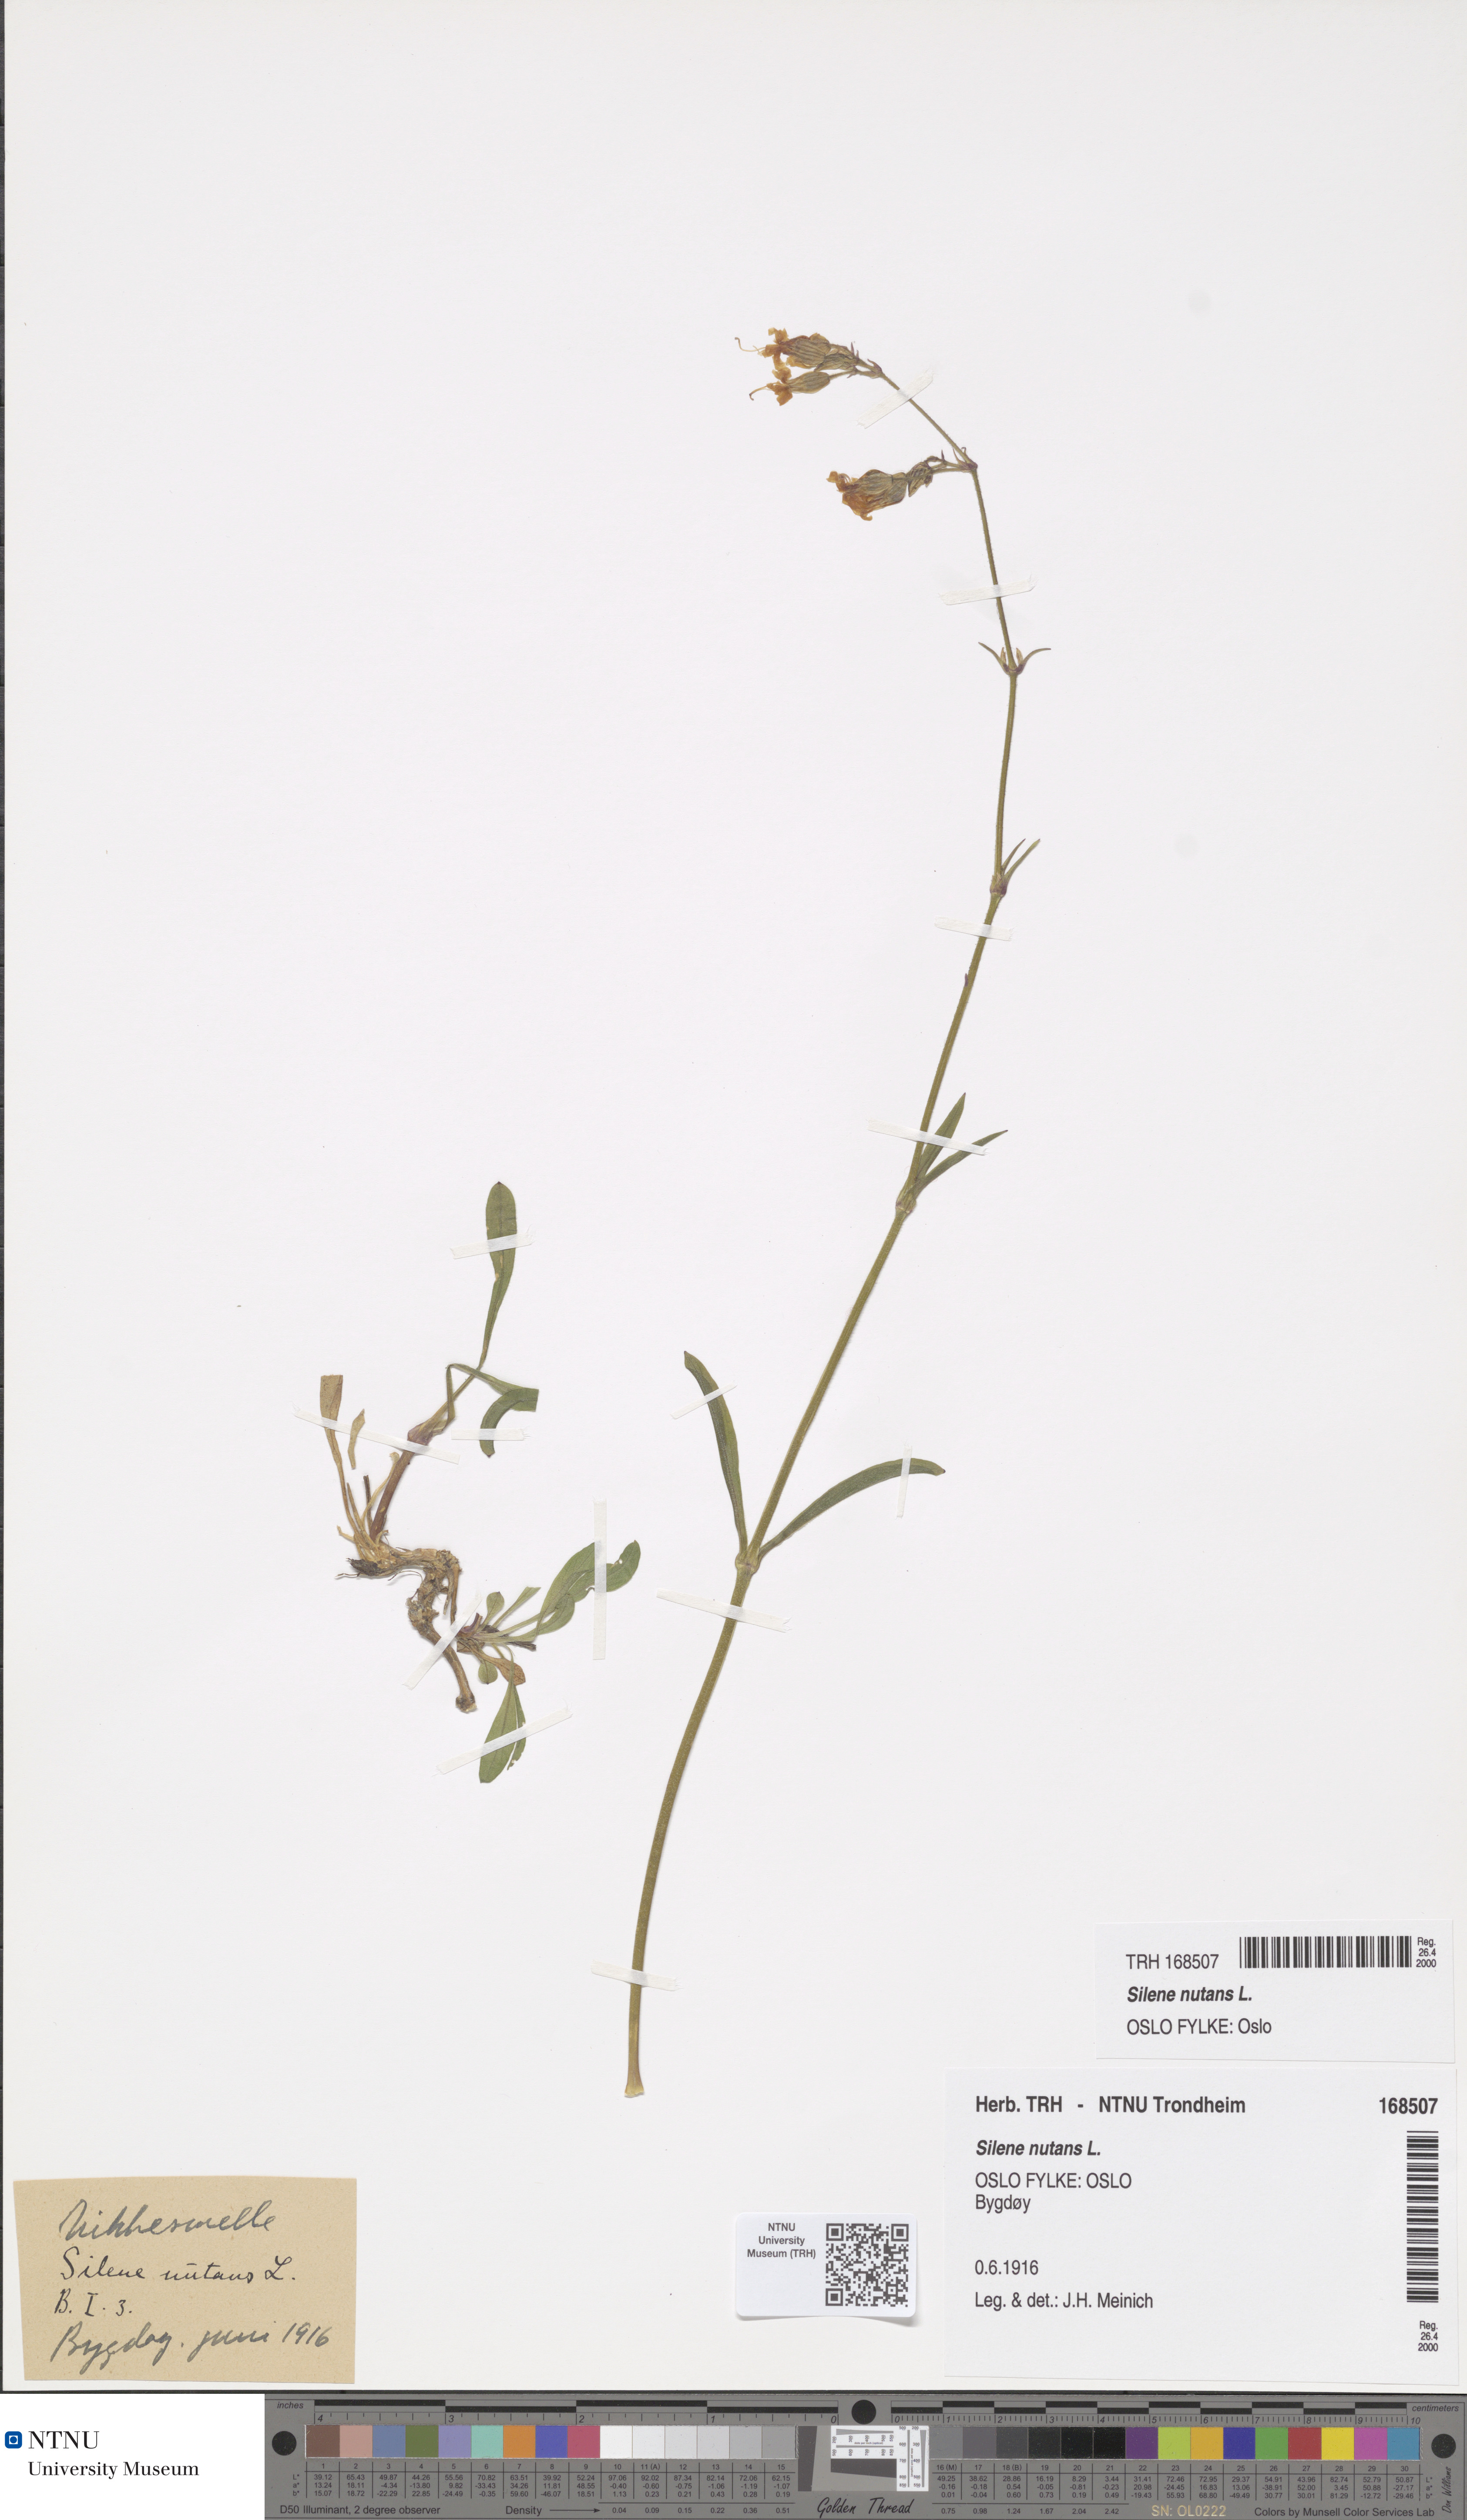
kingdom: Plantae
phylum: Tracheophyta
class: Magnoliopsida
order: Caryophyllales
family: Caryophyllaceae
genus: Silene
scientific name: Silene nutans
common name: Nottingham catchfly
